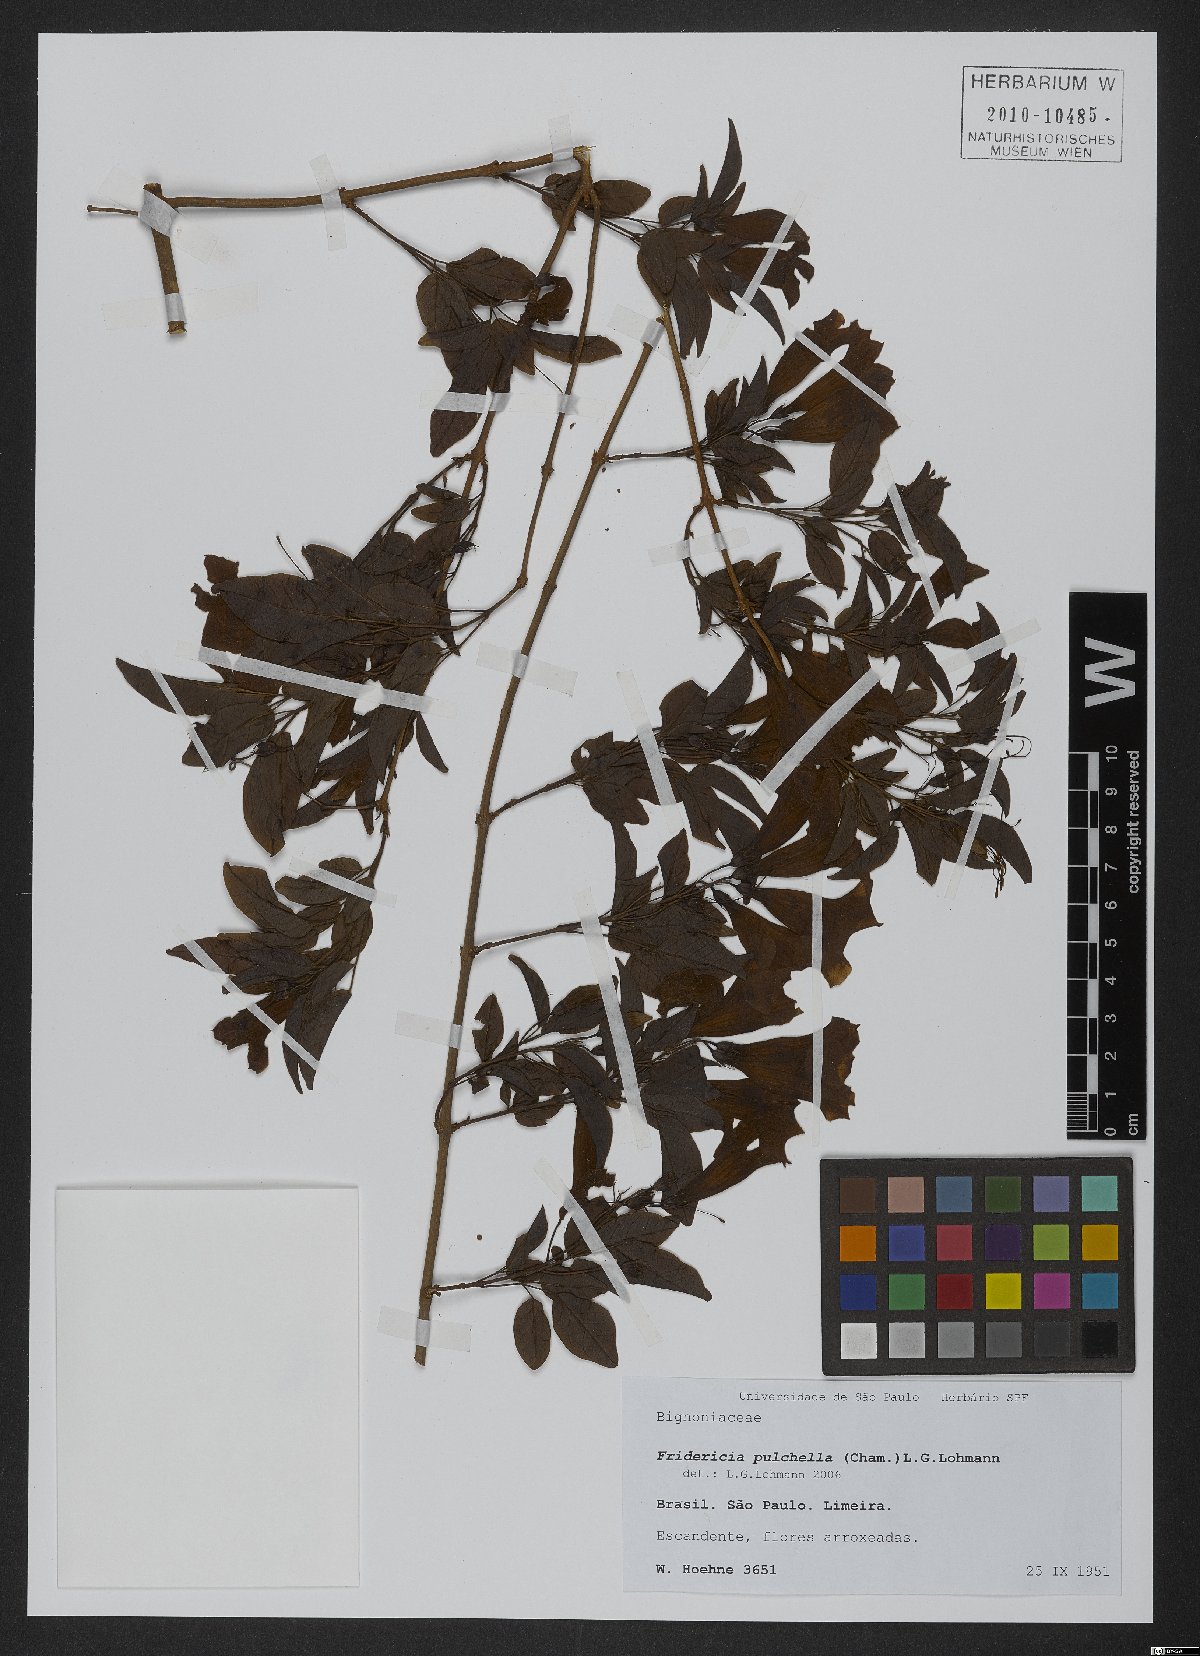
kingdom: Plantae
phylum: Tracheophyta
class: Magnoliopsida
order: Lamiales
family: Bignoniaceae
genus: Cuspidaria
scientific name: Cuspidaria pulchella
